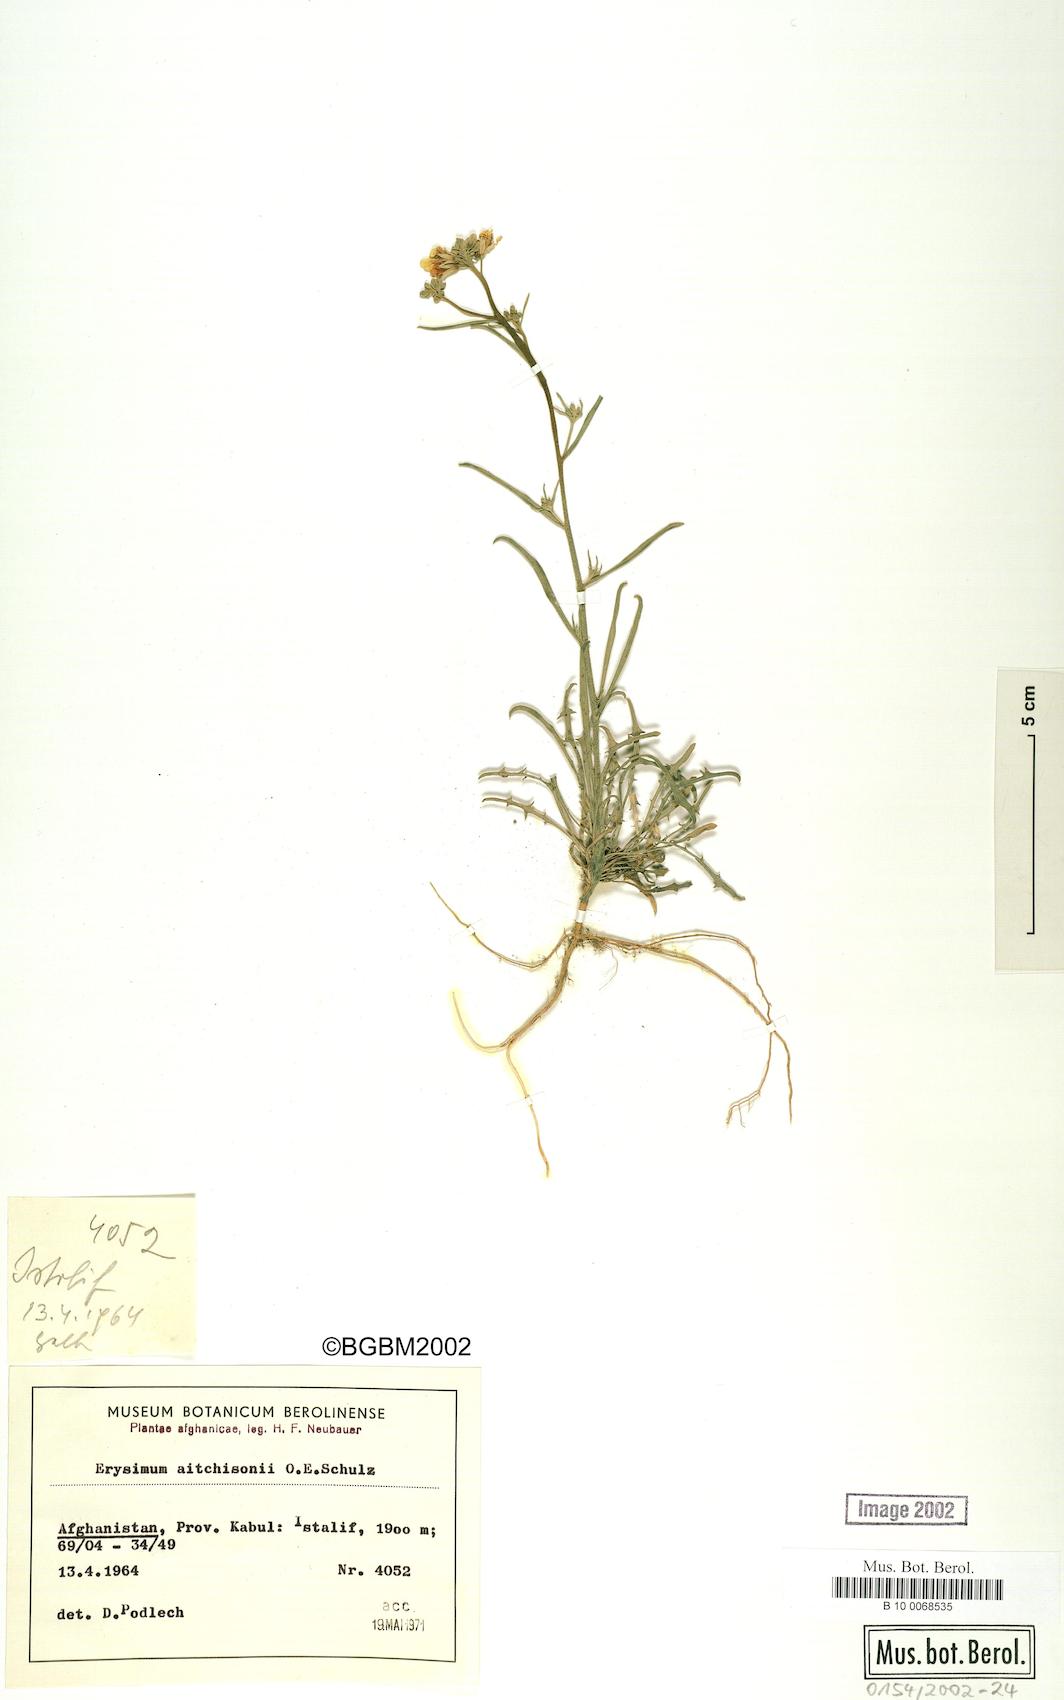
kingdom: Plantae
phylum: Tracheophyta
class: Magnoliopsida
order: Brassicales
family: Brassicaceae
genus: Erysimum
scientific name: Erysimum aitchisonii
